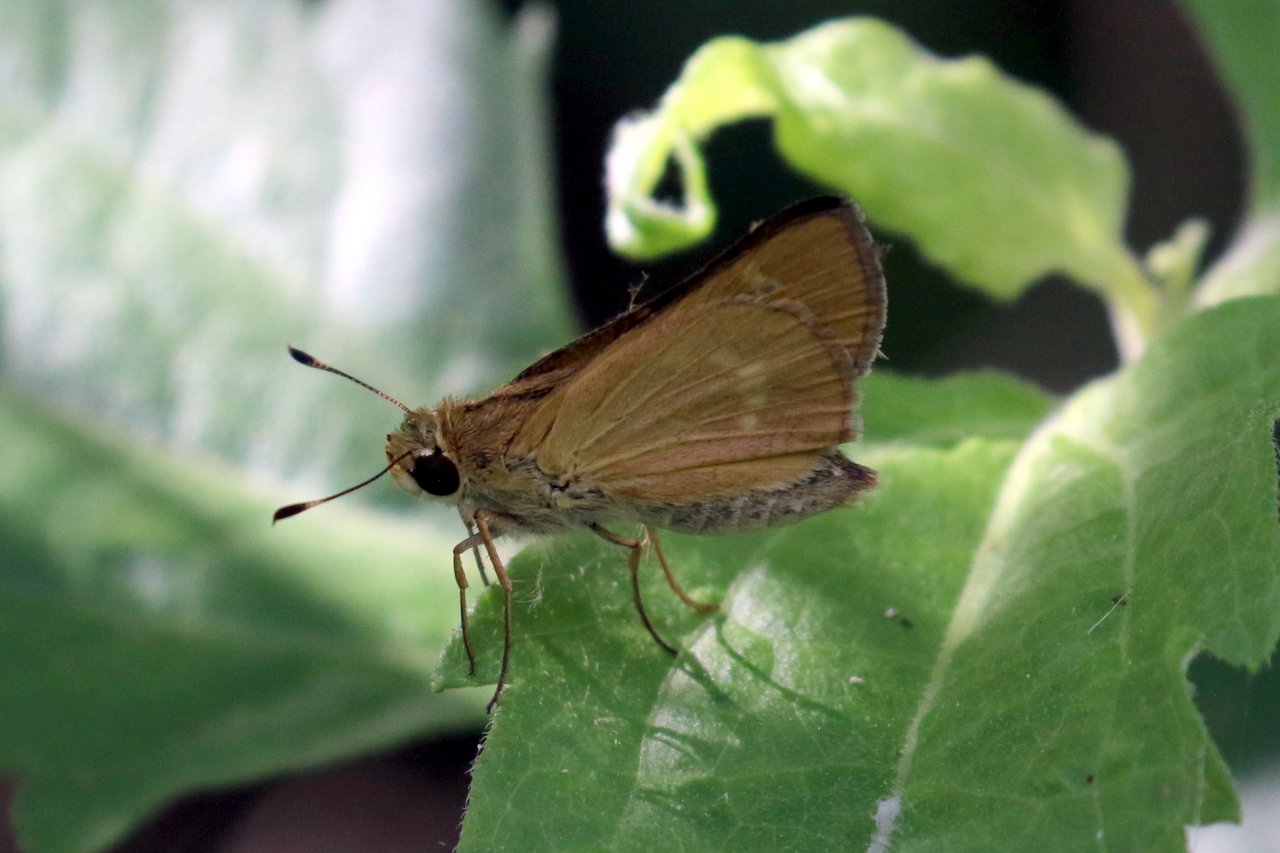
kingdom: Animalia
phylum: Arthropoda
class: Insecta
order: Lepidoptera
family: Hesperiidae
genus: Mellana
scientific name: Mellana eulogius
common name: Common Mellana
